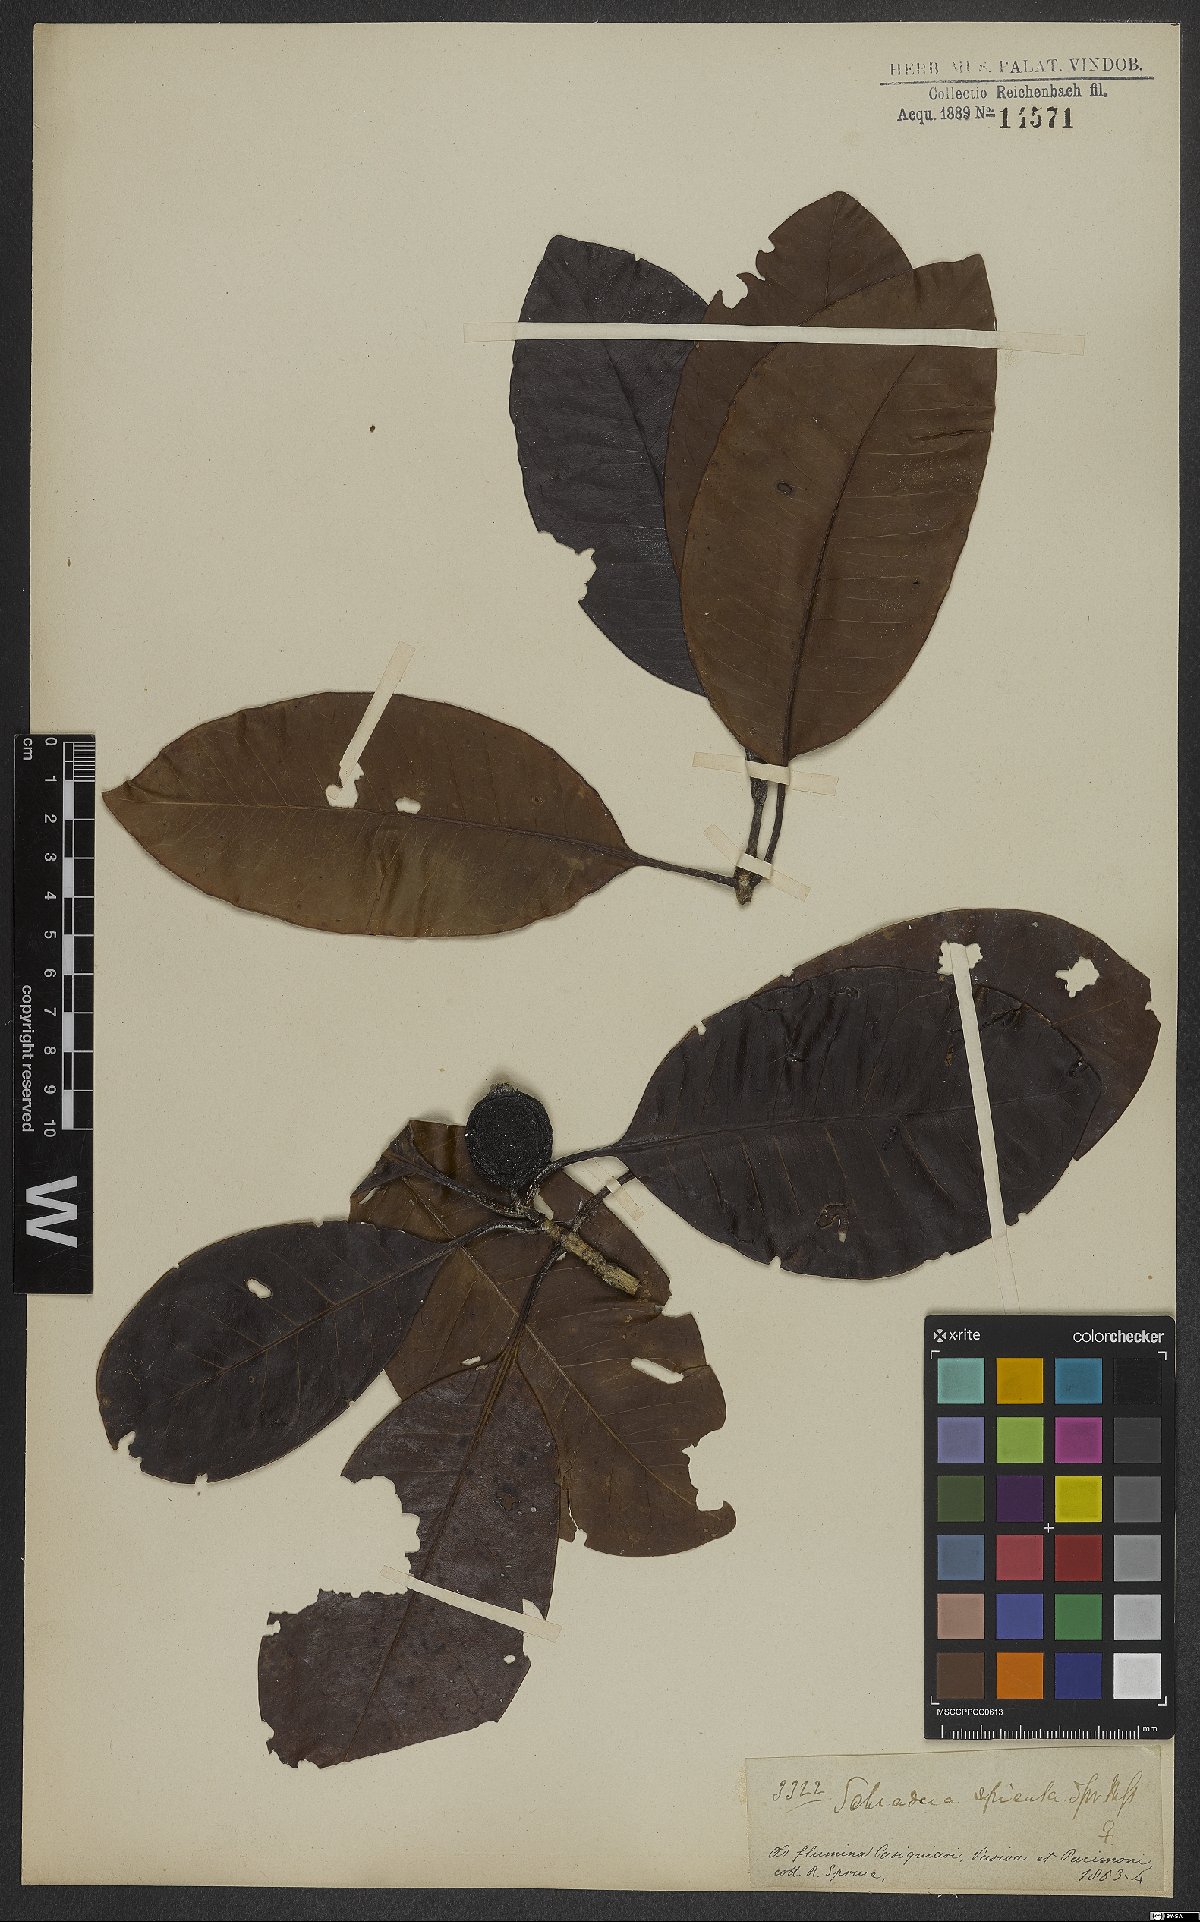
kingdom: Plantae
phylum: Tracheophyta
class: Magnoliopsida
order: Gentianales
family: Rubiaceae
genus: Stachyarrhena
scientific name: Stachyarrhena spicata
